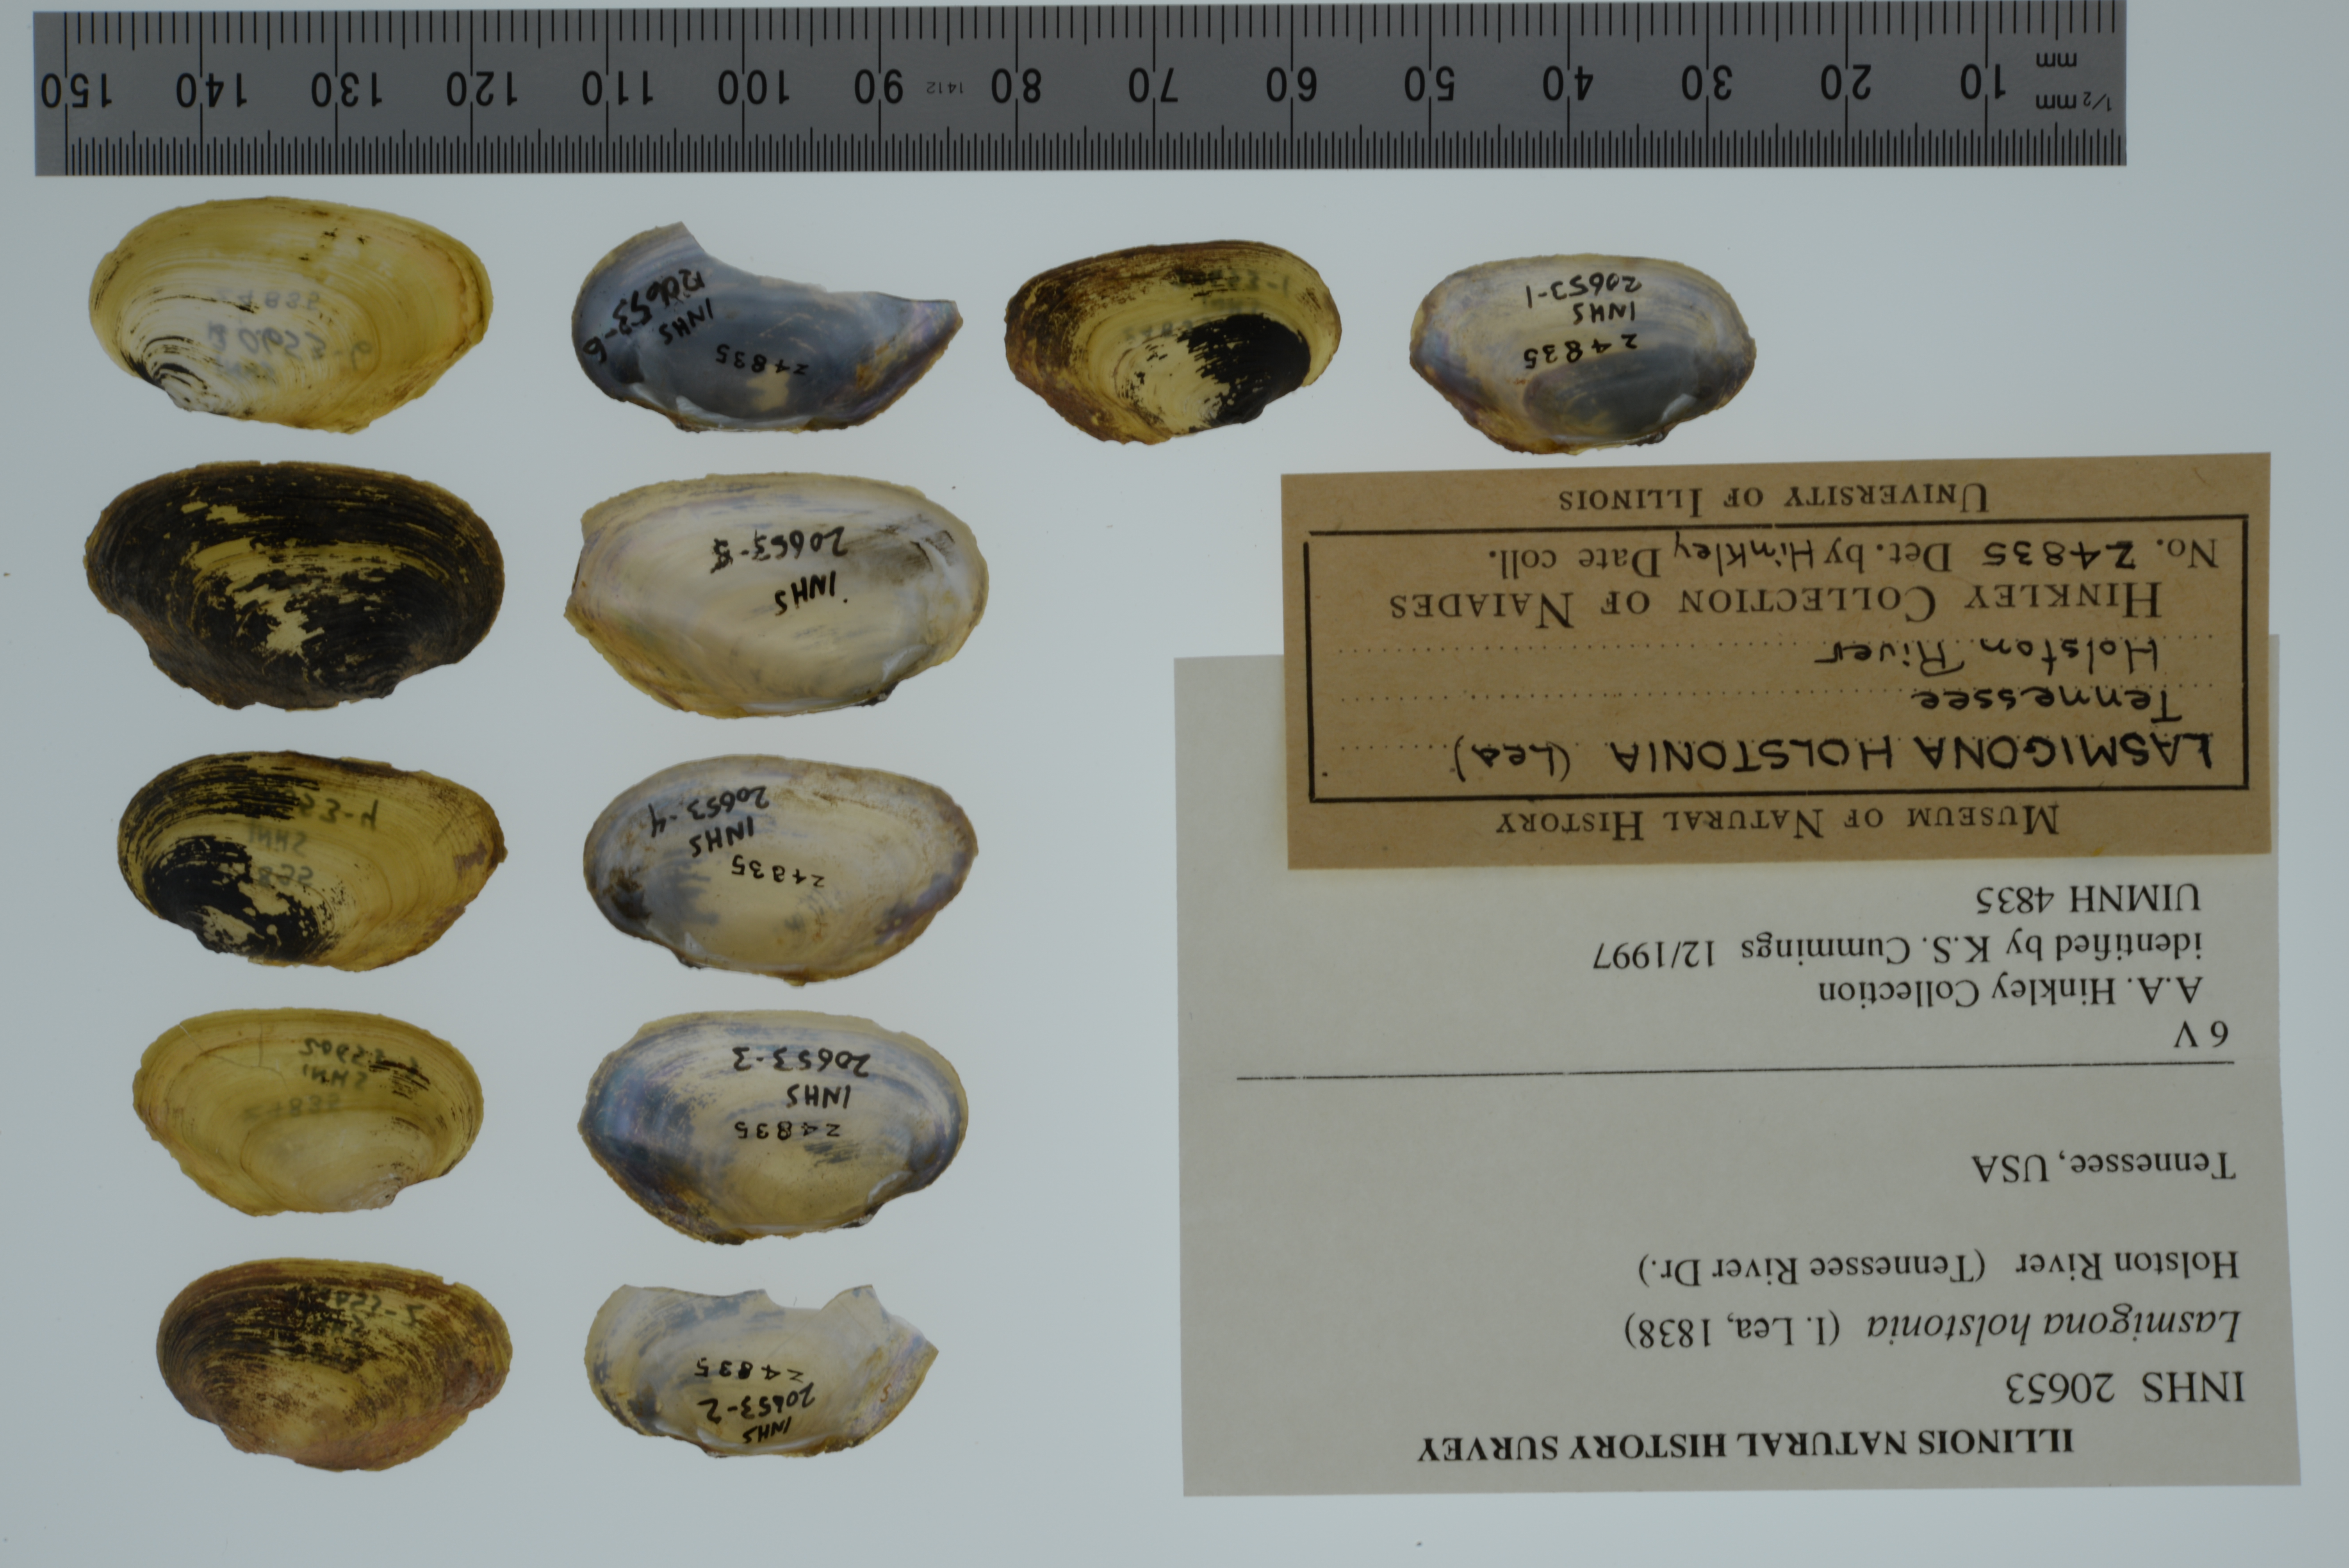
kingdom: Animalia
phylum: Mollusca
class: Bivalvia
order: Unionida
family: Unionidae
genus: Lasmigona
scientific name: Lasmigona holstonia
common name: Tennessee heelsplitter
